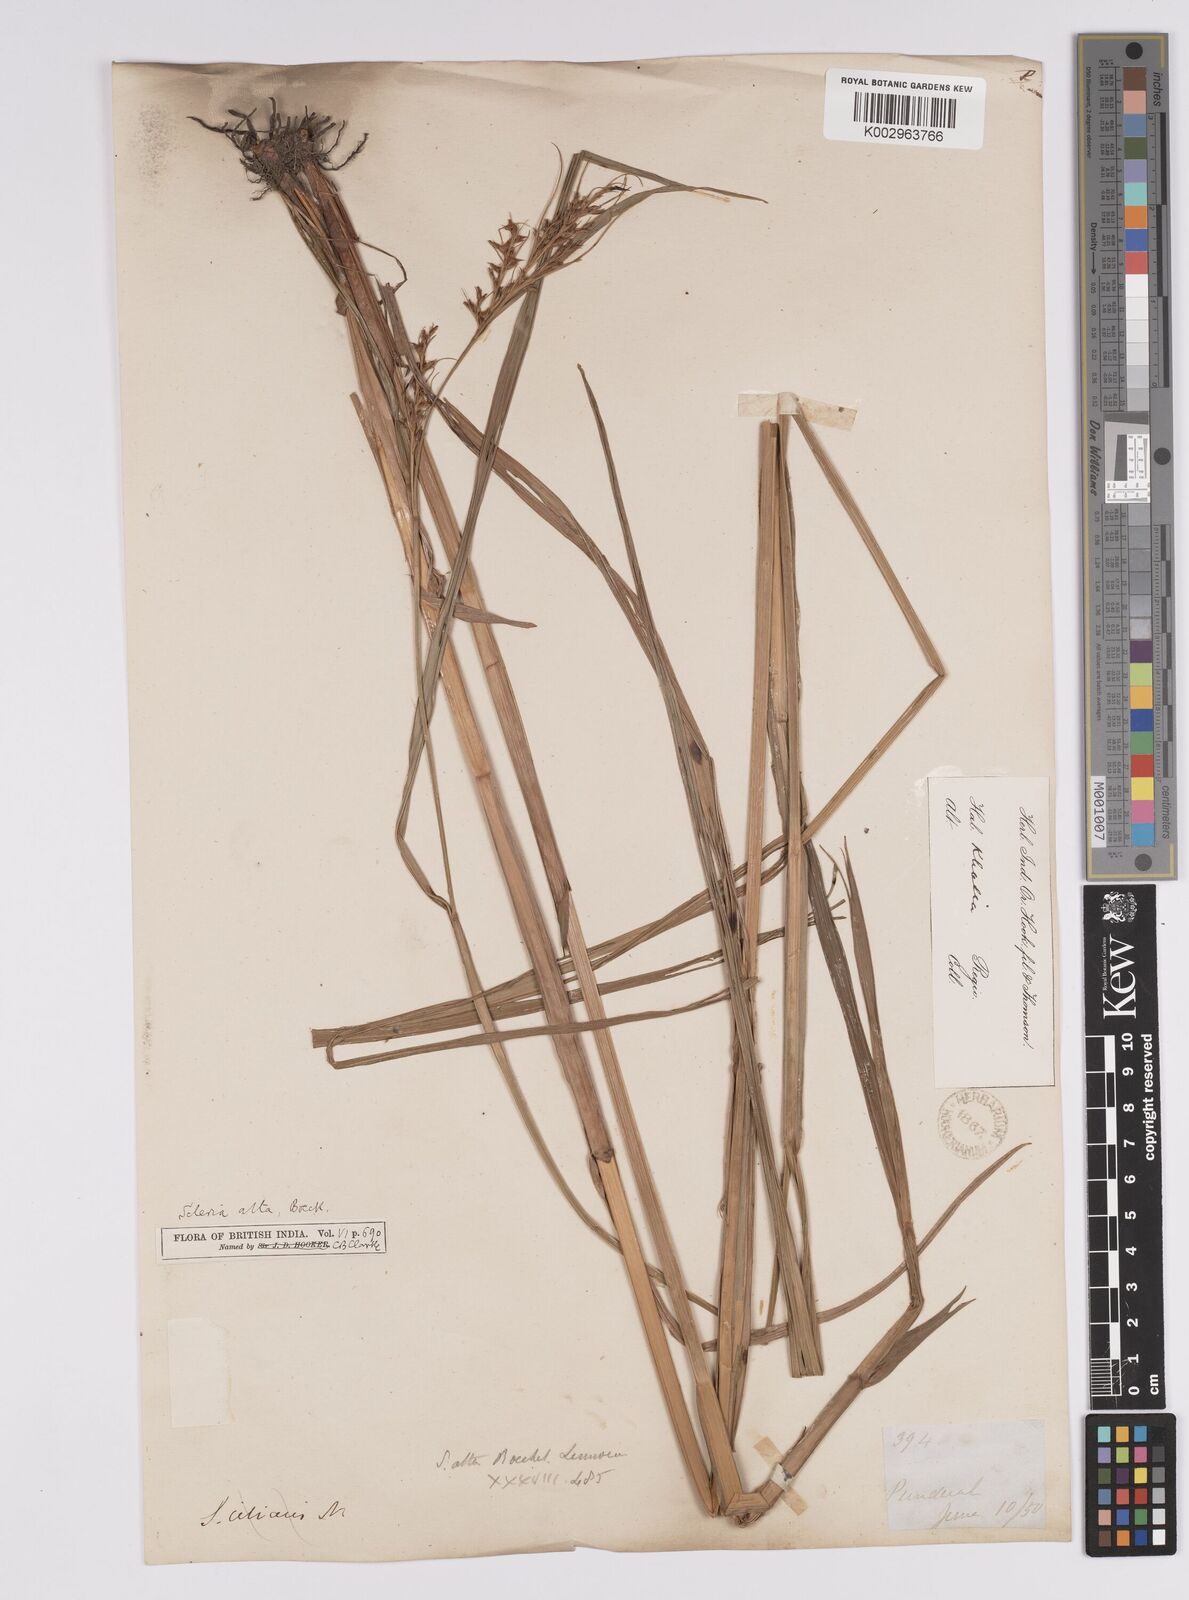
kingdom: Plantae
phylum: Tracheophyta
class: Liliopsida
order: Poales
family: Cyperaceae
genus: Scleria
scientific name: Scleria levis
